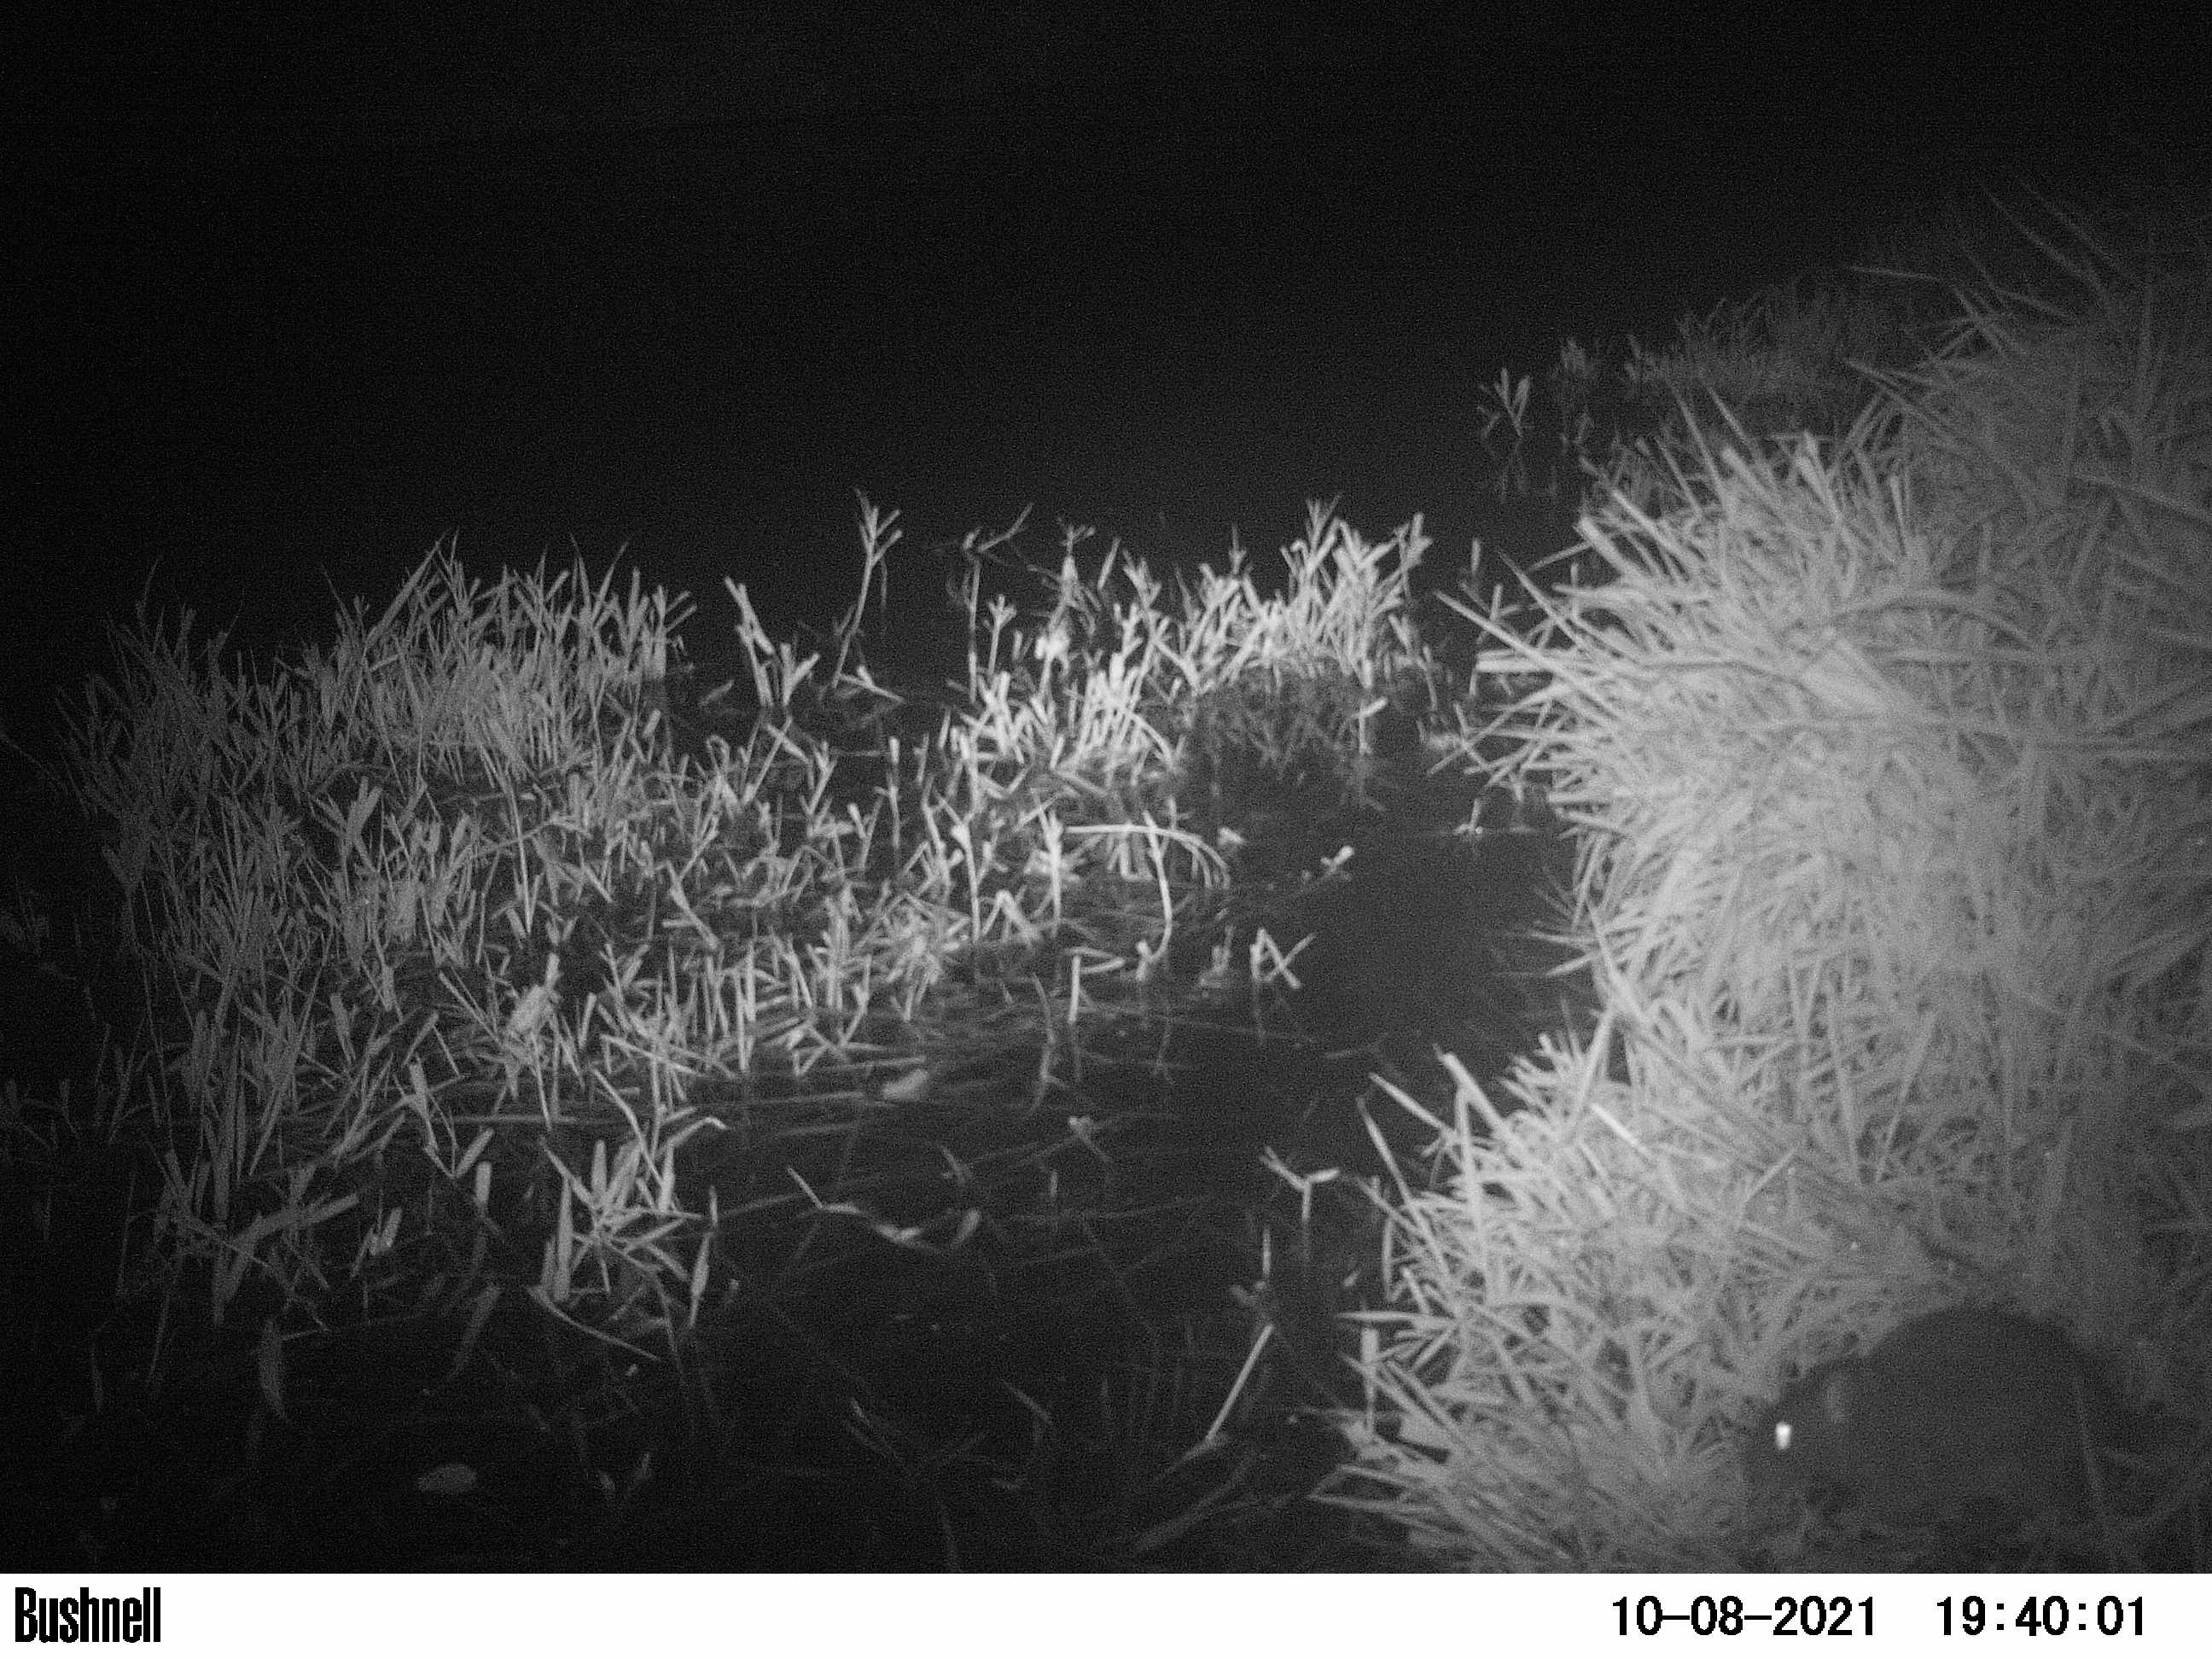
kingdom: Animalia
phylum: Chordata
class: Mammalia
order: Rodentia
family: Muridae
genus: Rattus
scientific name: Rattus norvegicus
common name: Brown rat
